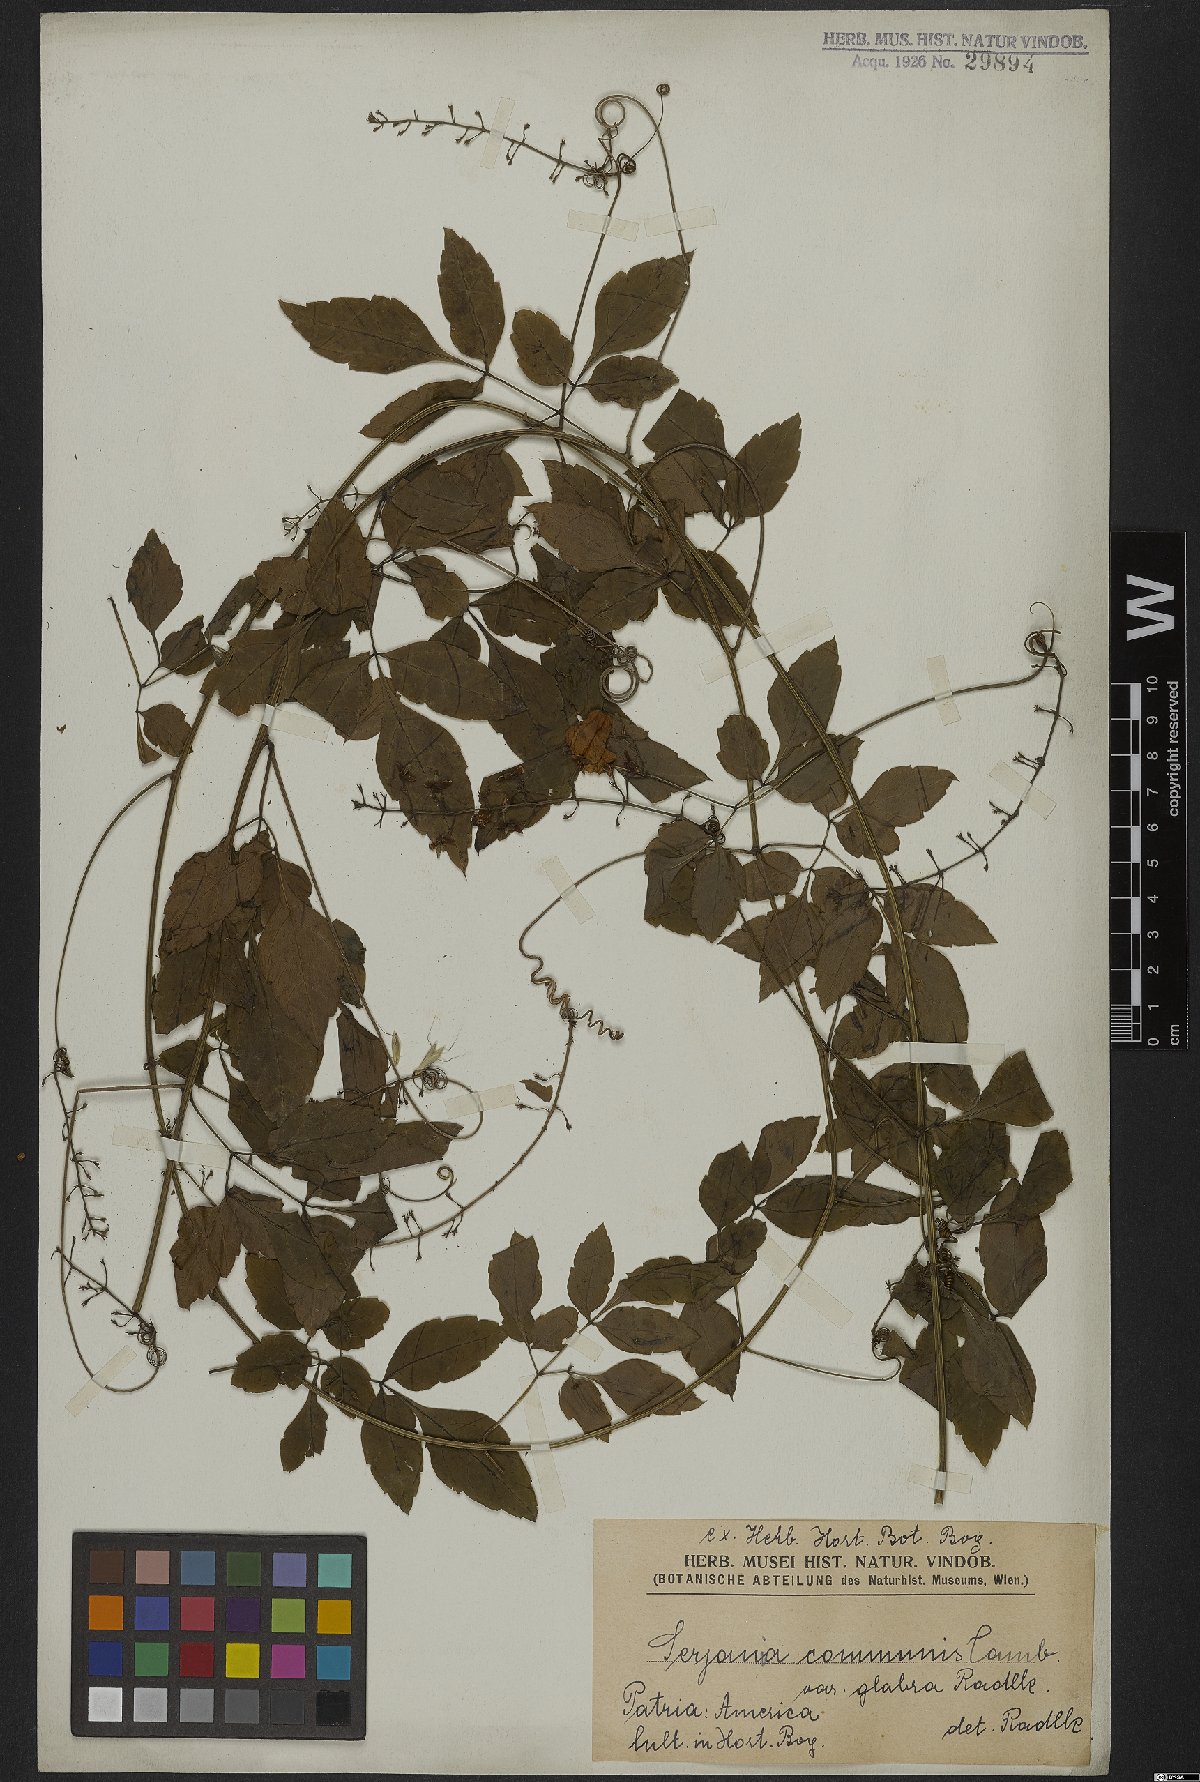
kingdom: Plantae
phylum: Tracheophyta
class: Magnoliopsida
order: Sapindales
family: Sapindaceae
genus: Serjania
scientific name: Serjania communis
